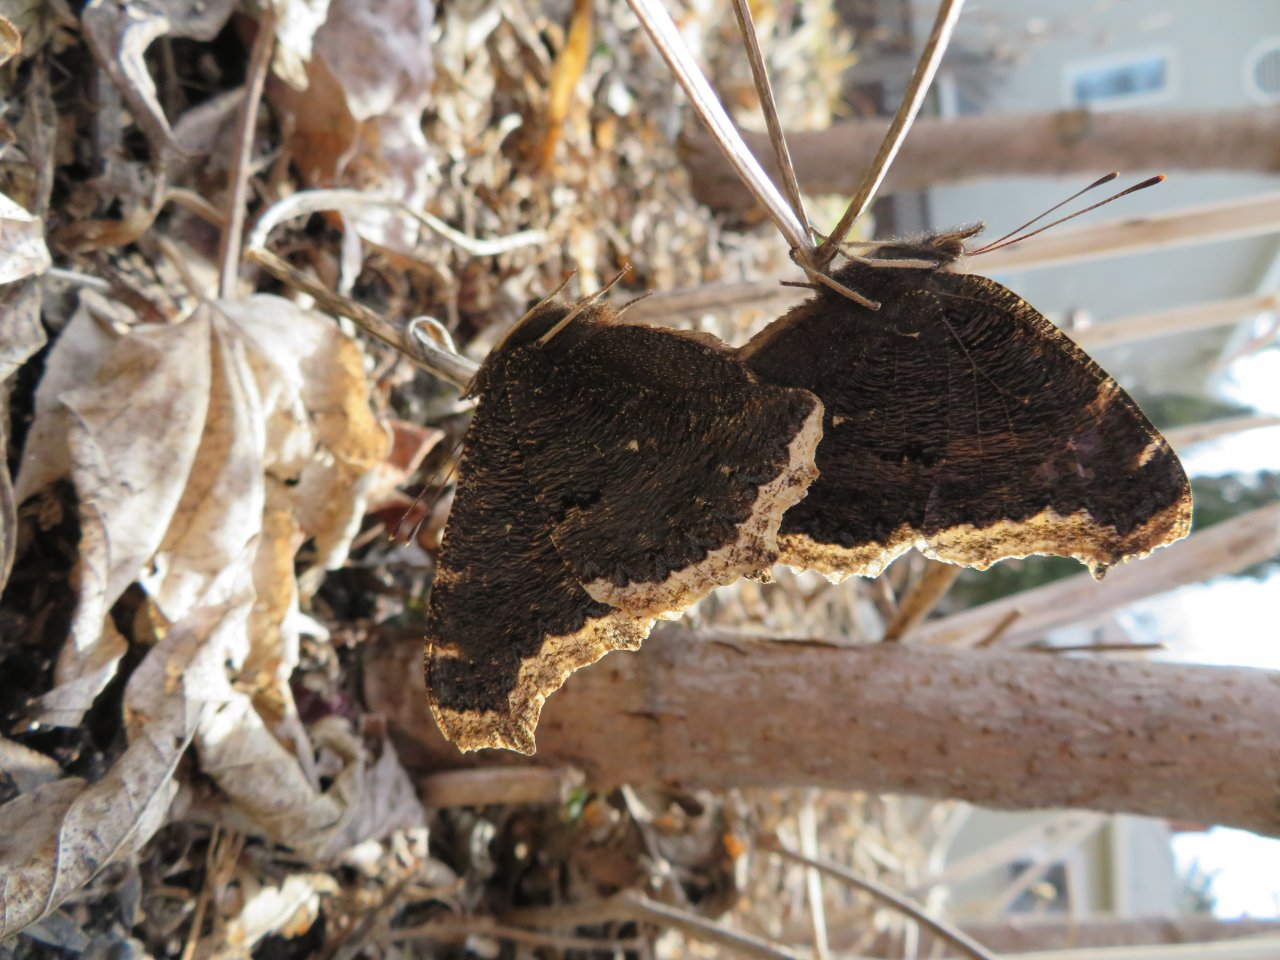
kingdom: Animalia
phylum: Arthropoda
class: Insecta
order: Lepidoptera
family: Nymphalidae
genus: Nymphalis
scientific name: Nymphalis antiopa
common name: Mourning Cloak
